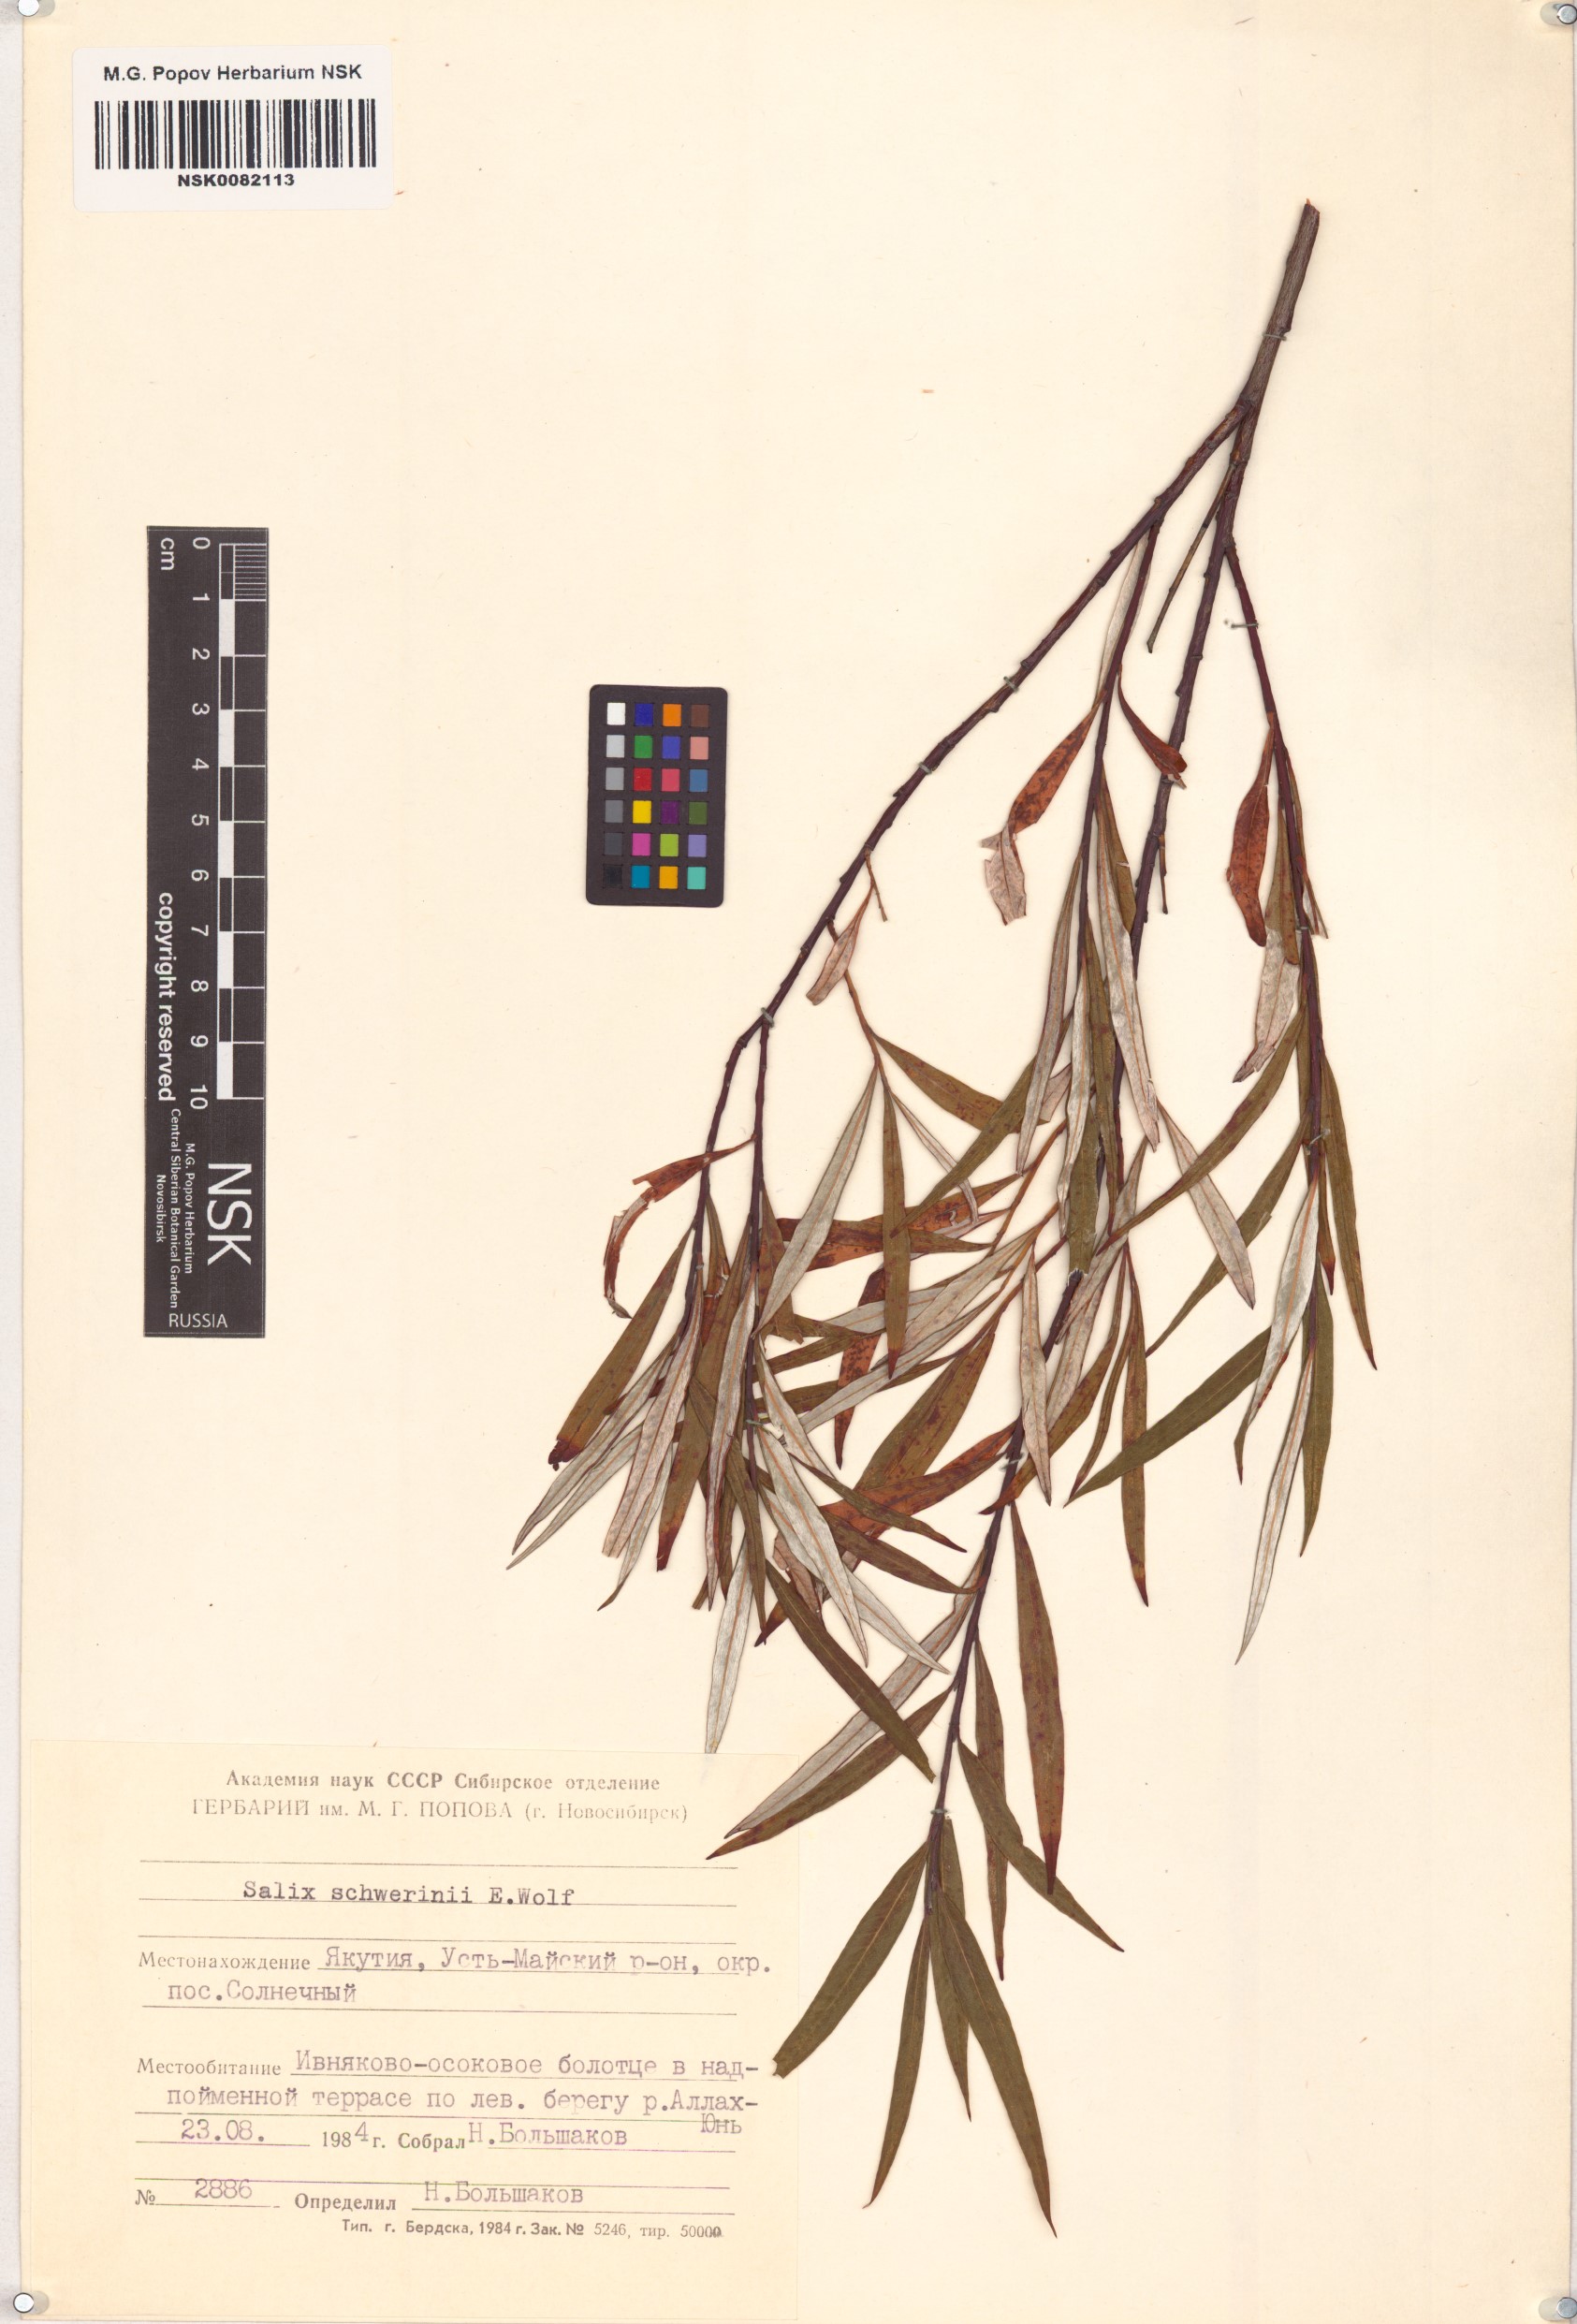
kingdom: Plantae
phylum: Tracheophyta
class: Magnoliopsida
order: Malpighiales
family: Salicaceae
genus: Salix
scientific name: Salix schwerinii
